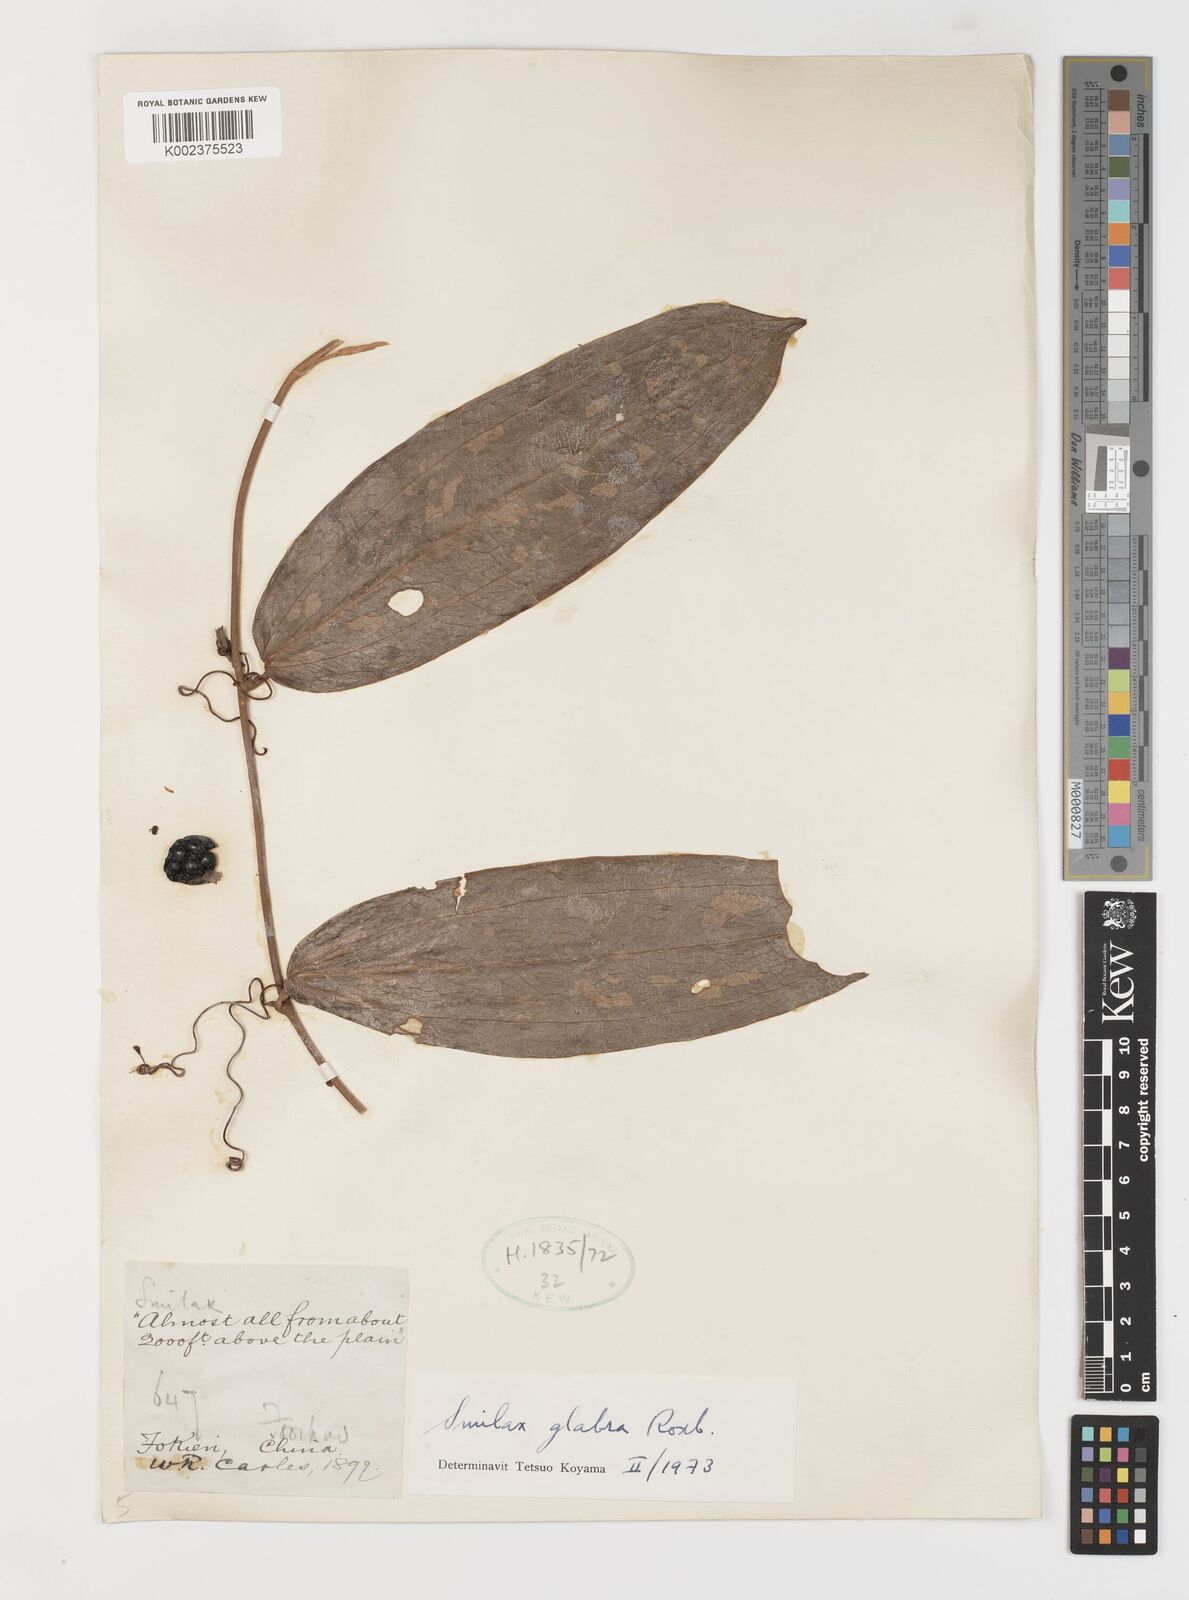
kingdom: Plantae
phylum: Tracheophyta
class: Liliopsida
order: Liliales
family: Smilacaceae
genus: Smilax
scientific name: Smilax glabra
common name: Chinese smilax
